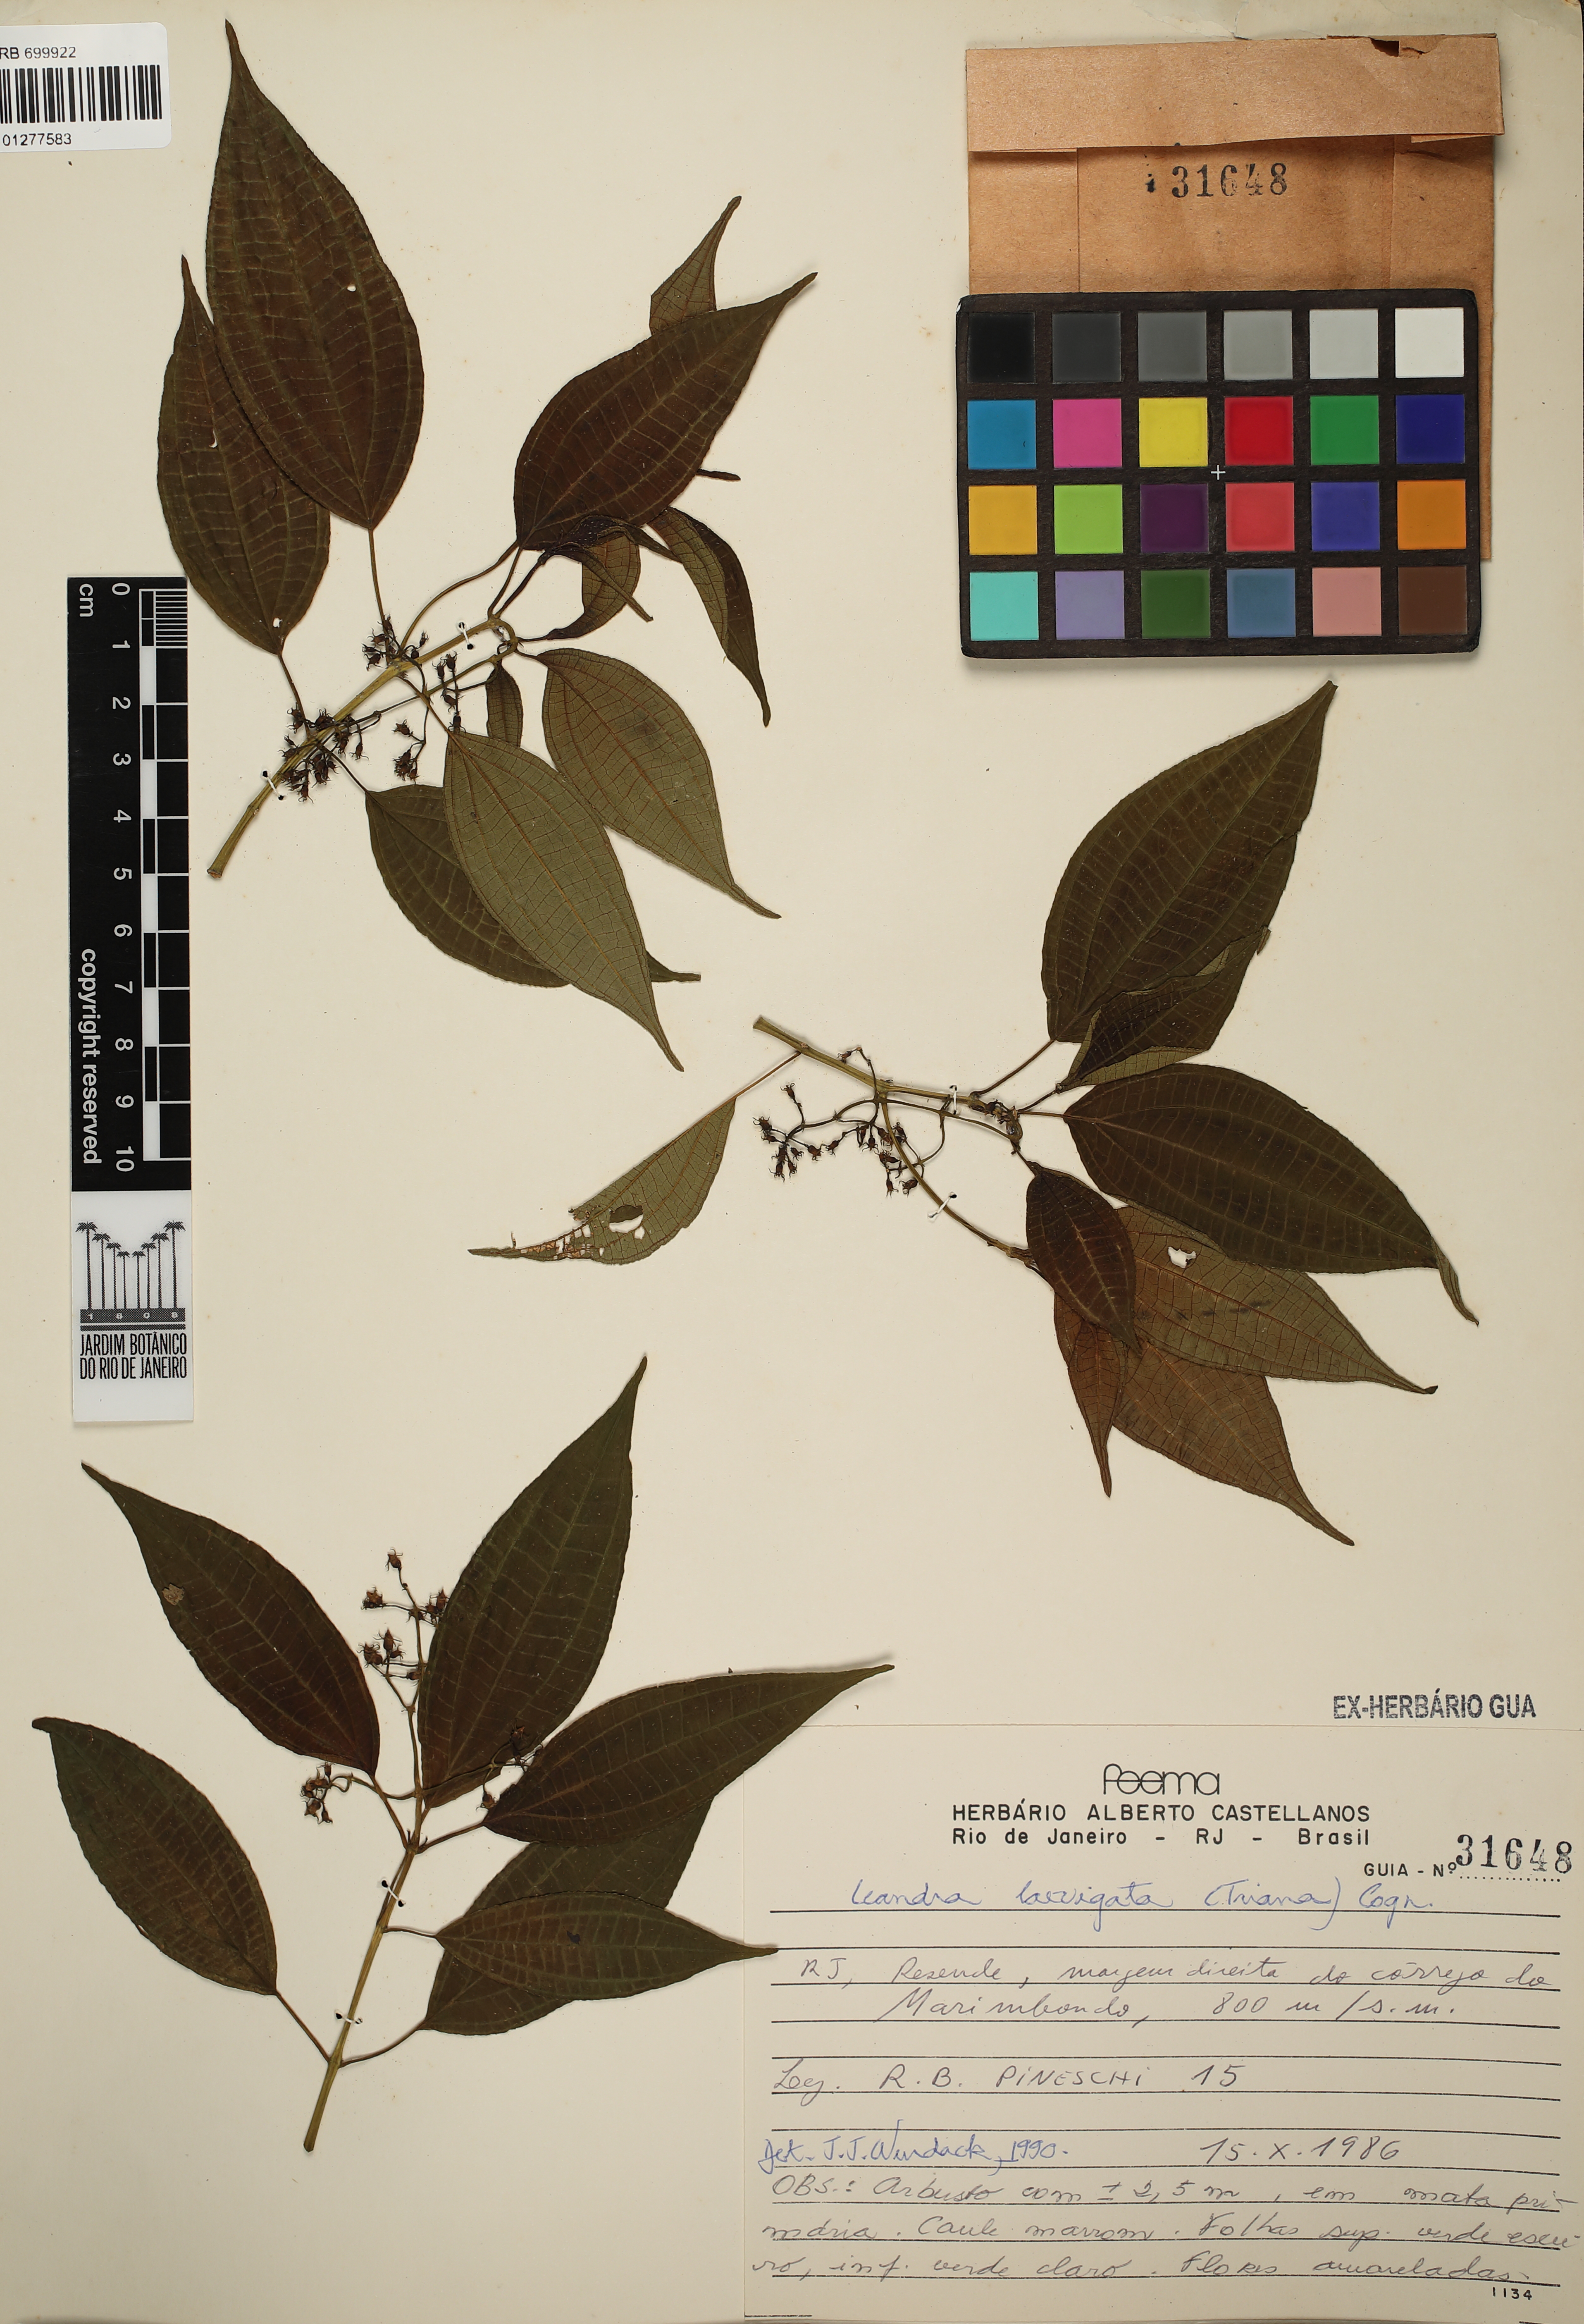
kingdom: Plantae
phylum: Tracheophyta
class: Magnoliopsida
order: Myrtales
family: Melastomataceae
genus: Miconia
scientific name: Miconia ciliolata
